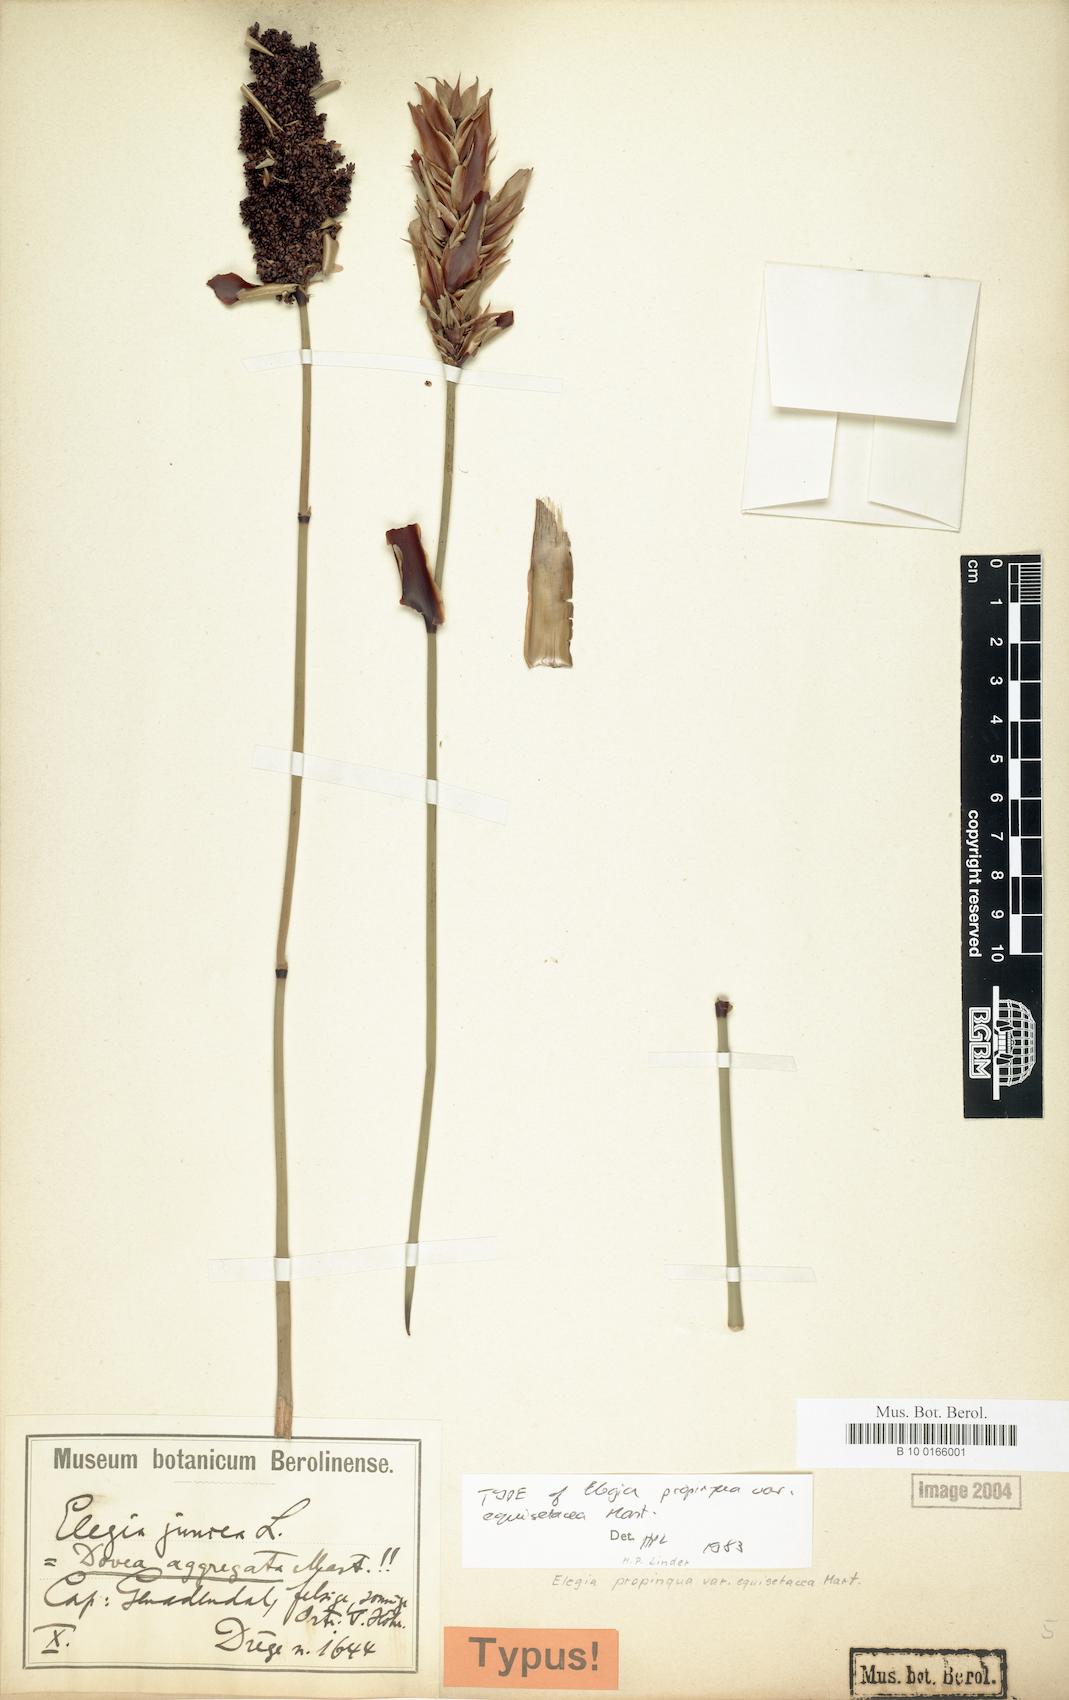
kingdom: Plantae
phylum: Tracheophyta
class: Liliopsida
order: Poales
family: Restionaceae
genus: Elegia
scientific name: Elegia equisetacea
